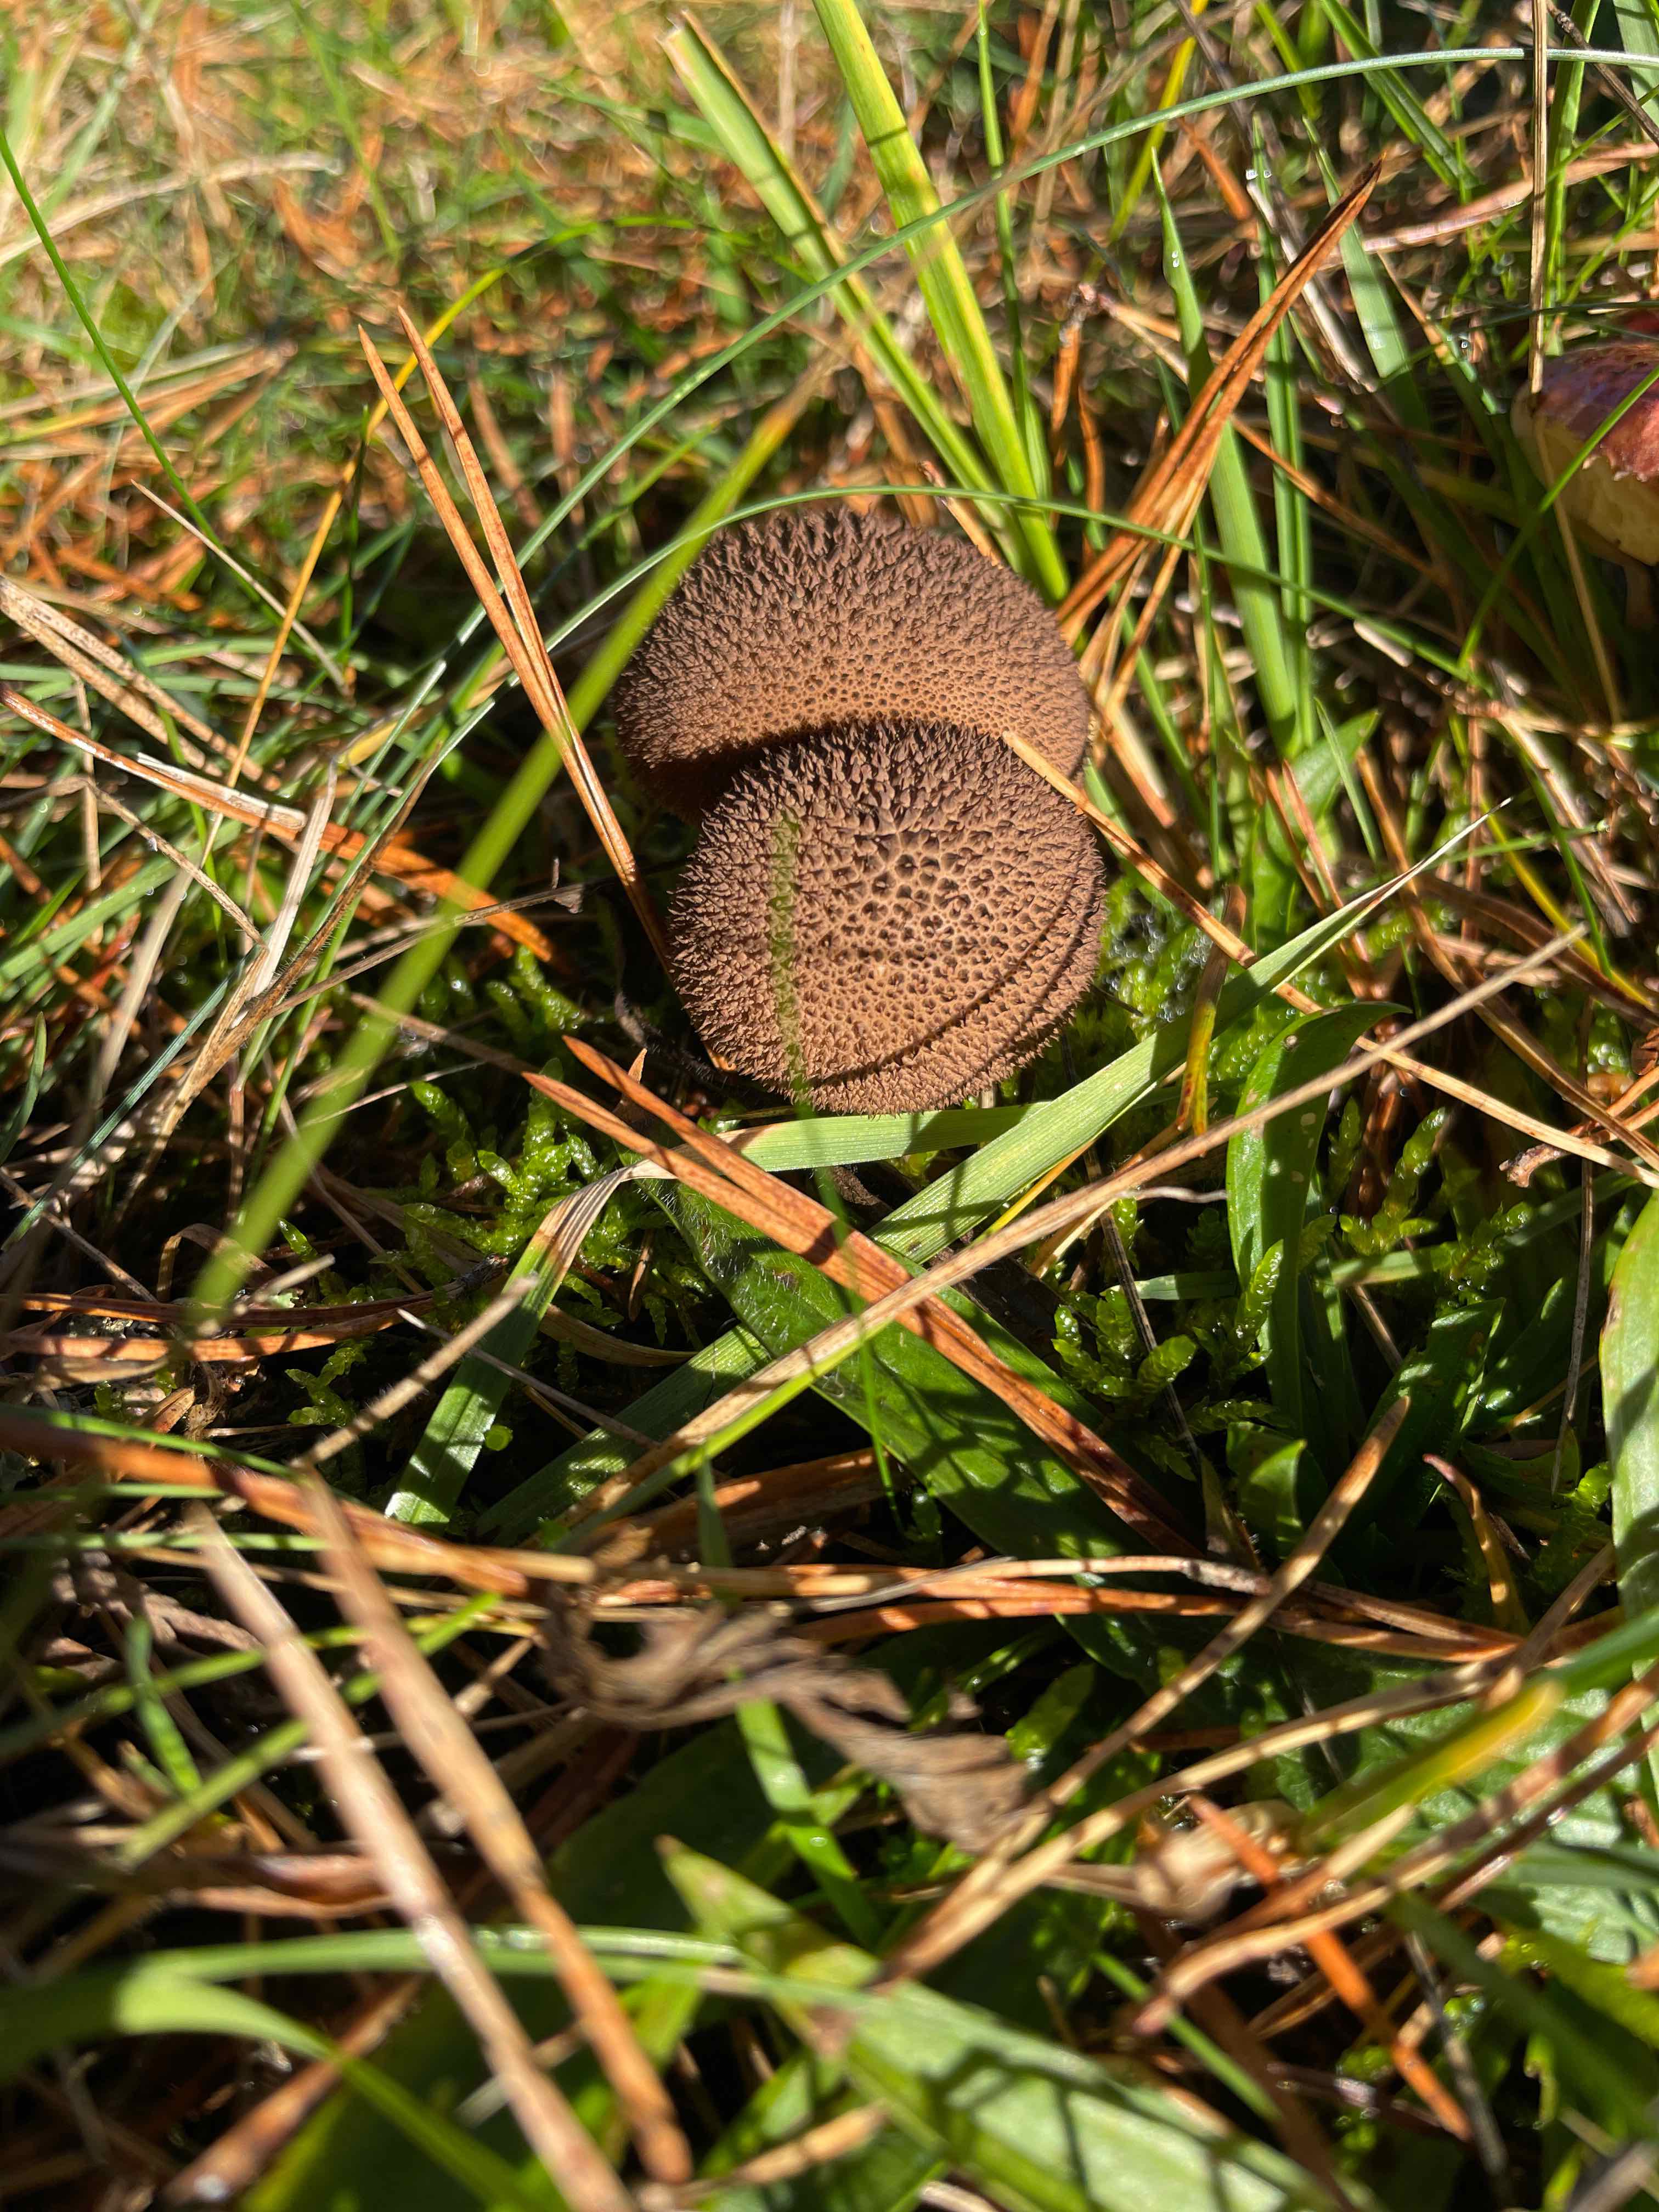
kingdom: Fungi
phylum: Basidiomycota
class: Agaricomycetes
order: Agaricales
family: Lycoperdaceae
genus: Lycoperdon
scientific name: Lycoperdon nigrescens
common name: sortagtig støvbold
